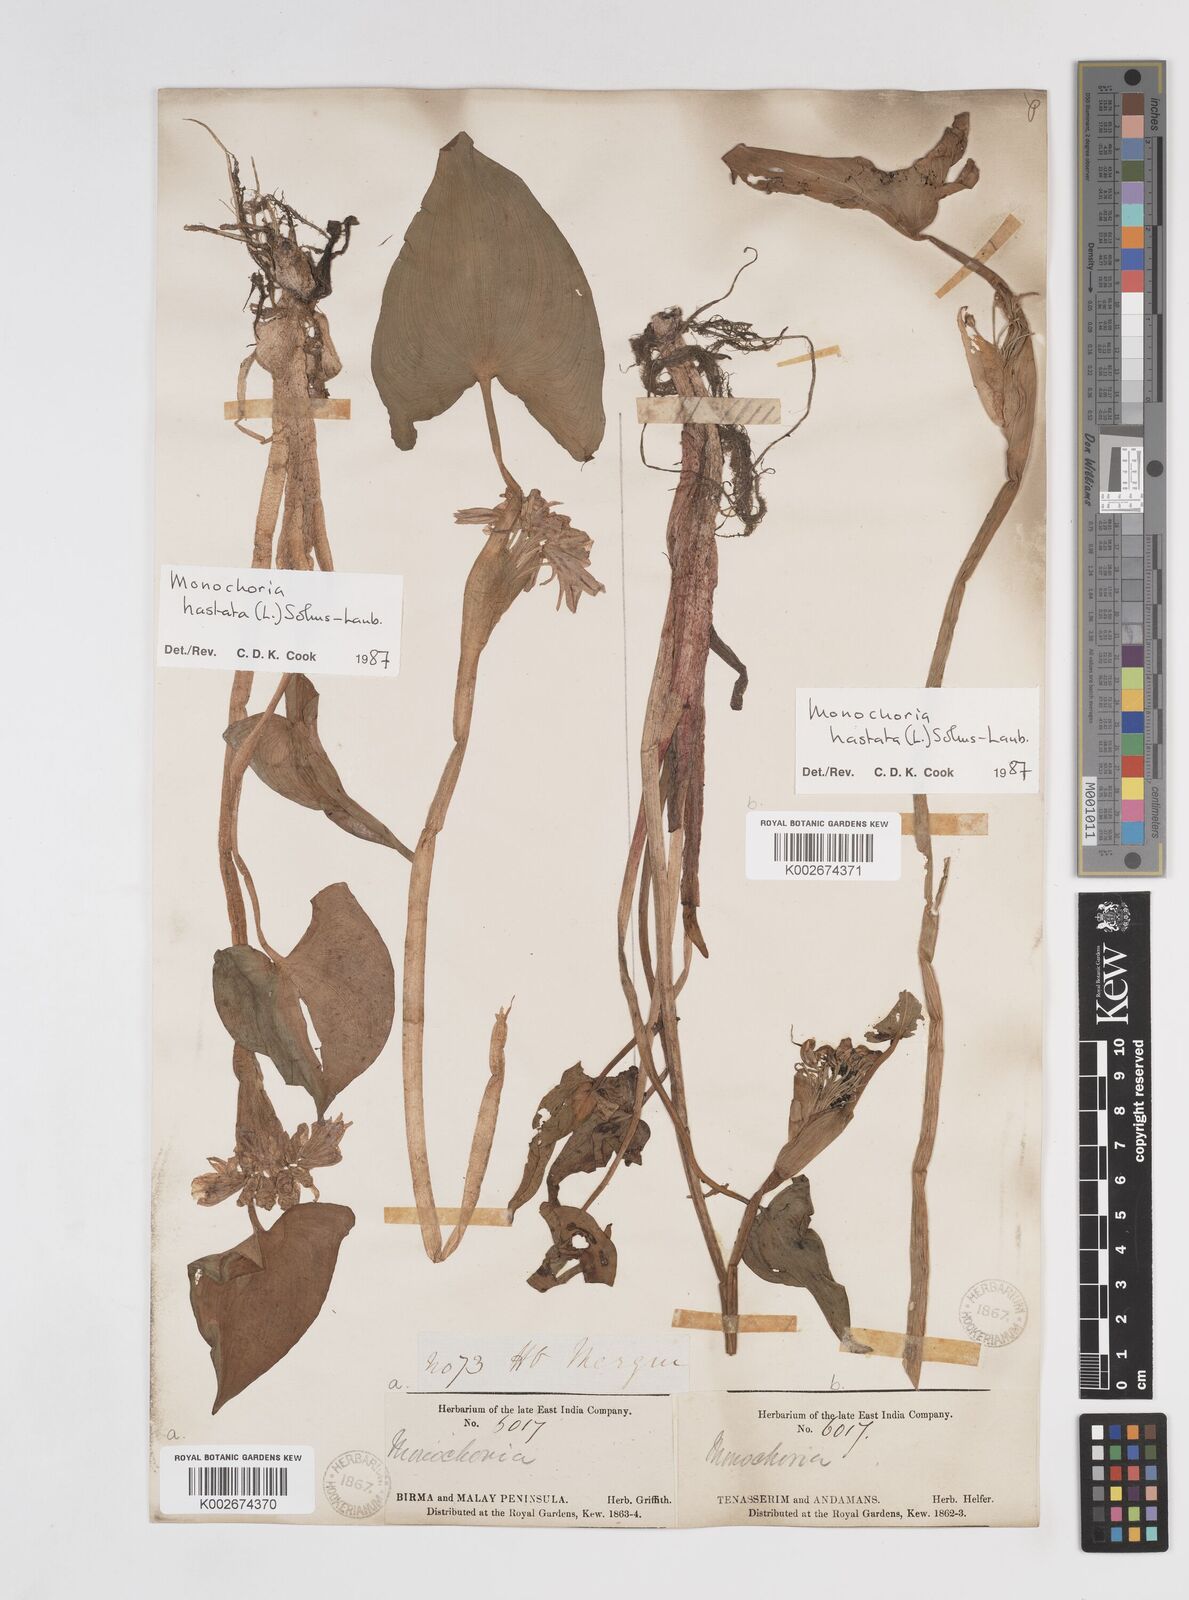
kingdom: Plantae
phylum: Tracheophyta
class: Liliopsida
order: Commelinales
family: Pontederiaceae
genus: Pontederia
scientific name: Pontederia hastata
